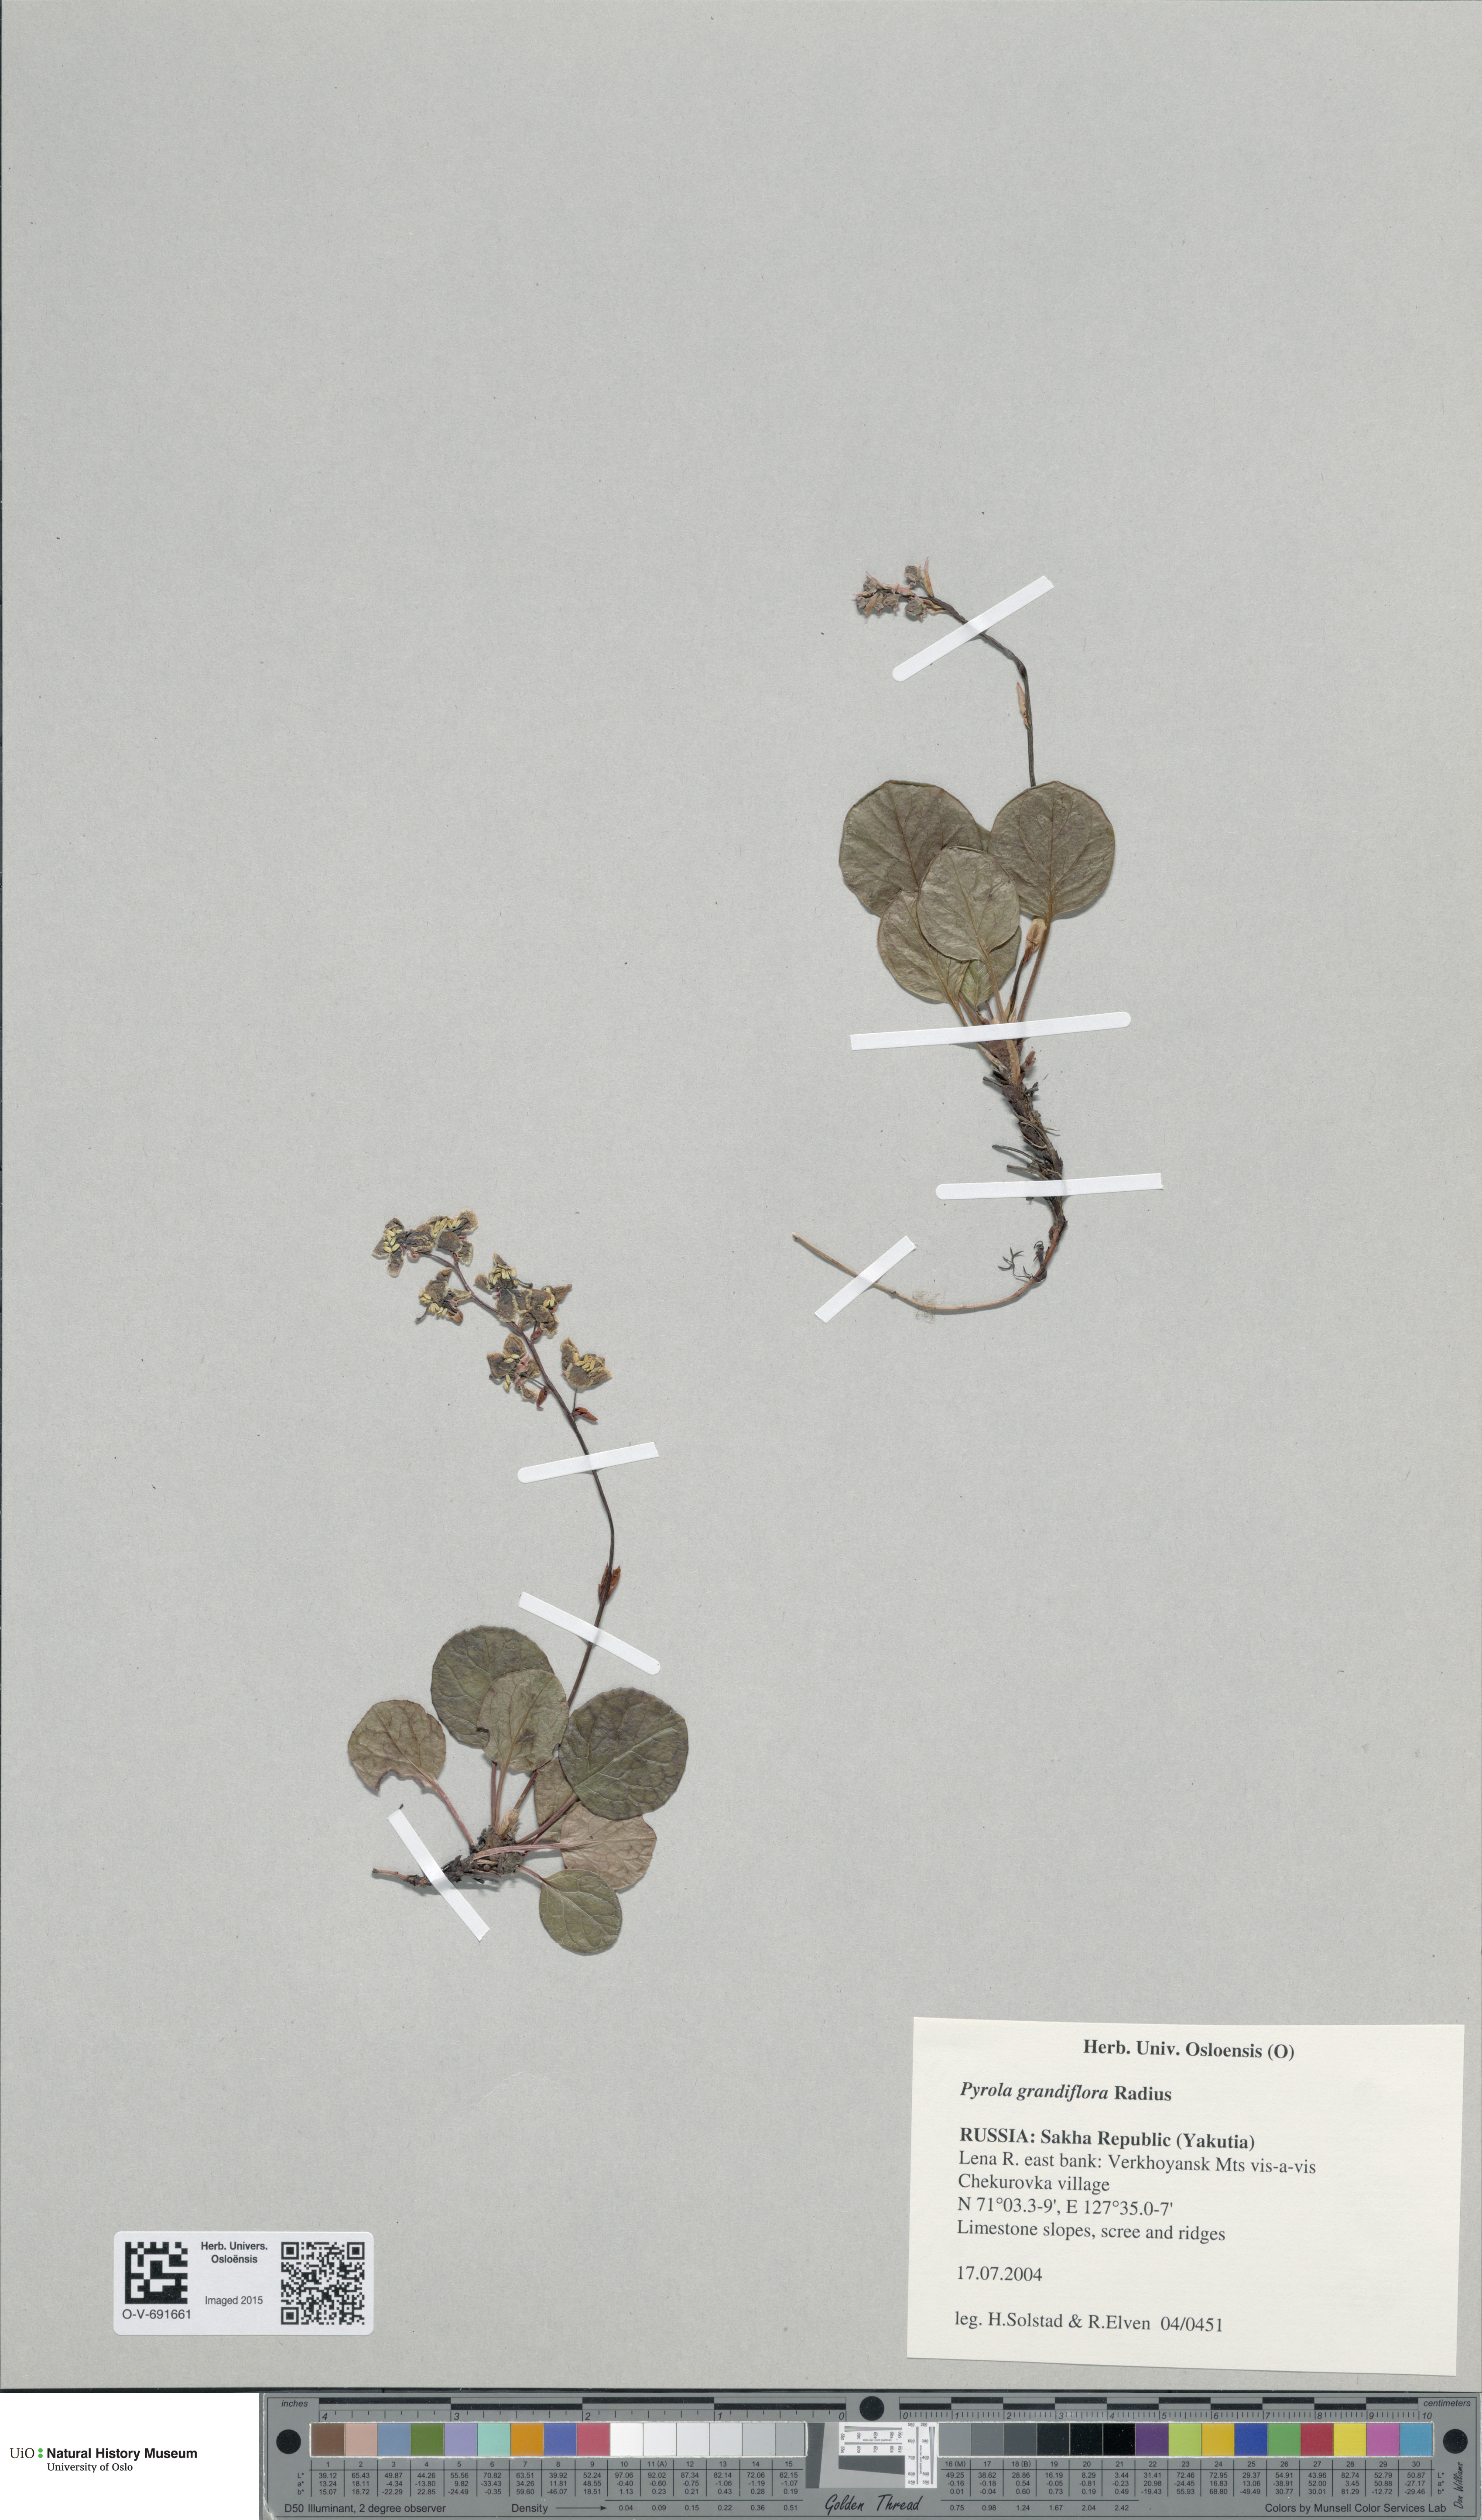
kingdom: Plantae
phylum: Tracheophyta
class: Magnoliopsida
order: Ericales
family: Ericaceae
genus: Pyrola
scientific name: Pyrola grandiflora
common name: Arctic pyrola
